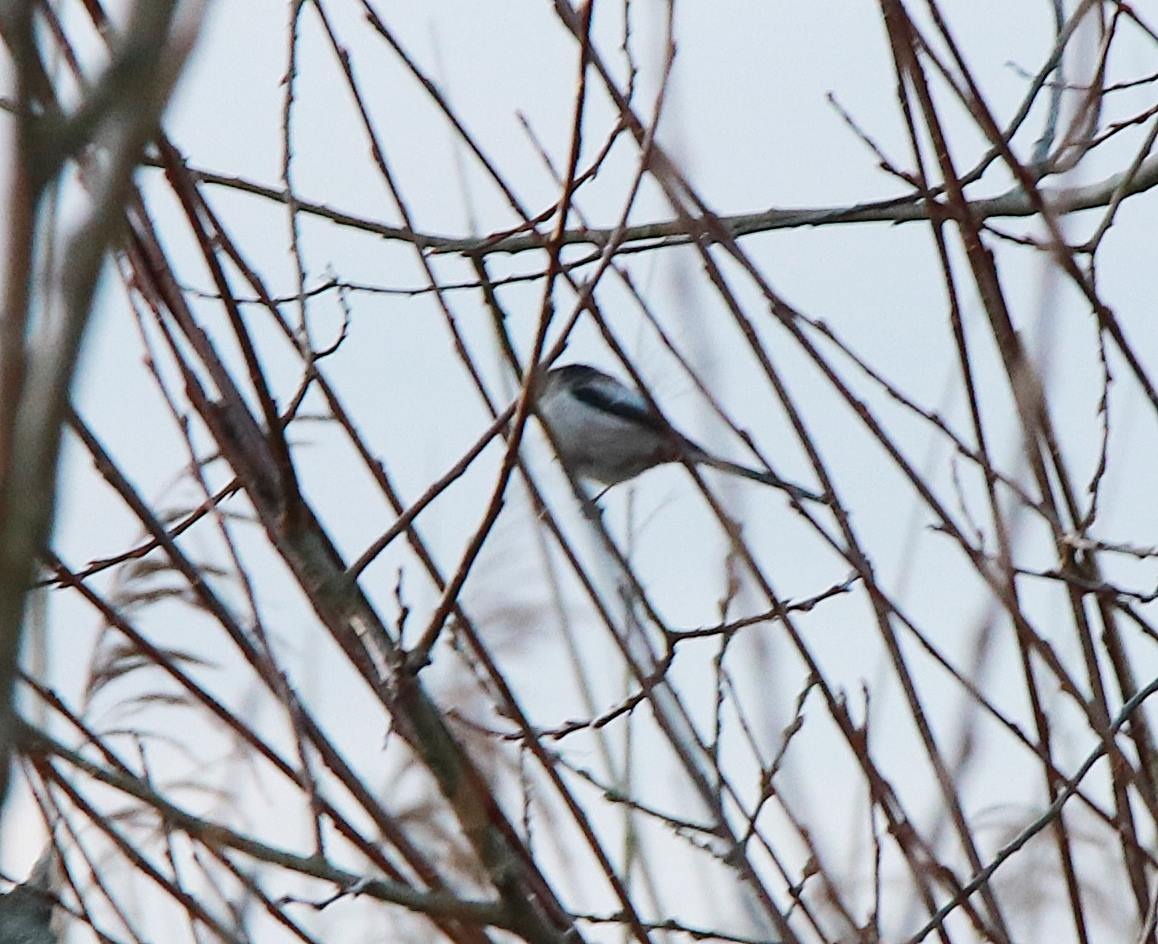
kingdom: Animalia
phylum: Chordata
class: Aves
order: Passeriformes
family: Aegithalidae
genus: Aegithalos
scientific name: Aegithalos caudatus
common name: Halemejse
